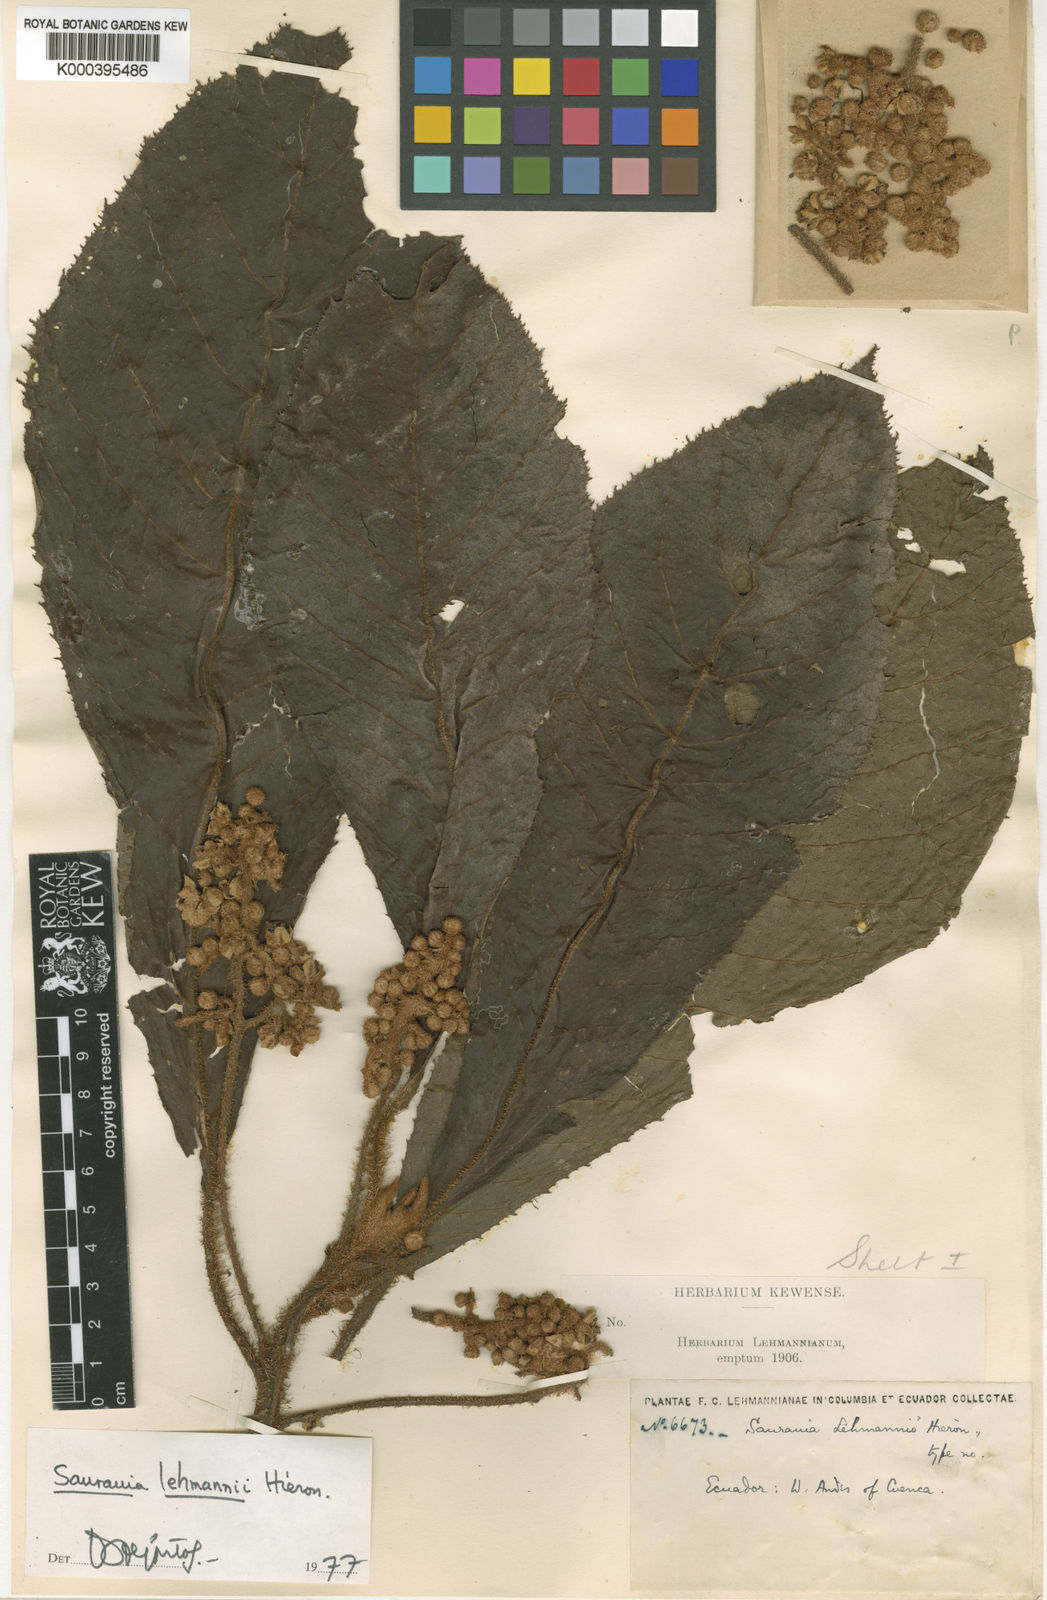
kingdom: Plantae
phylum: Tracheophyta
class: Magnoliopsida
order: Ericales
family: Actinidiaceae
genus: Saurauia
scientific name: Saurauia lehmannii
